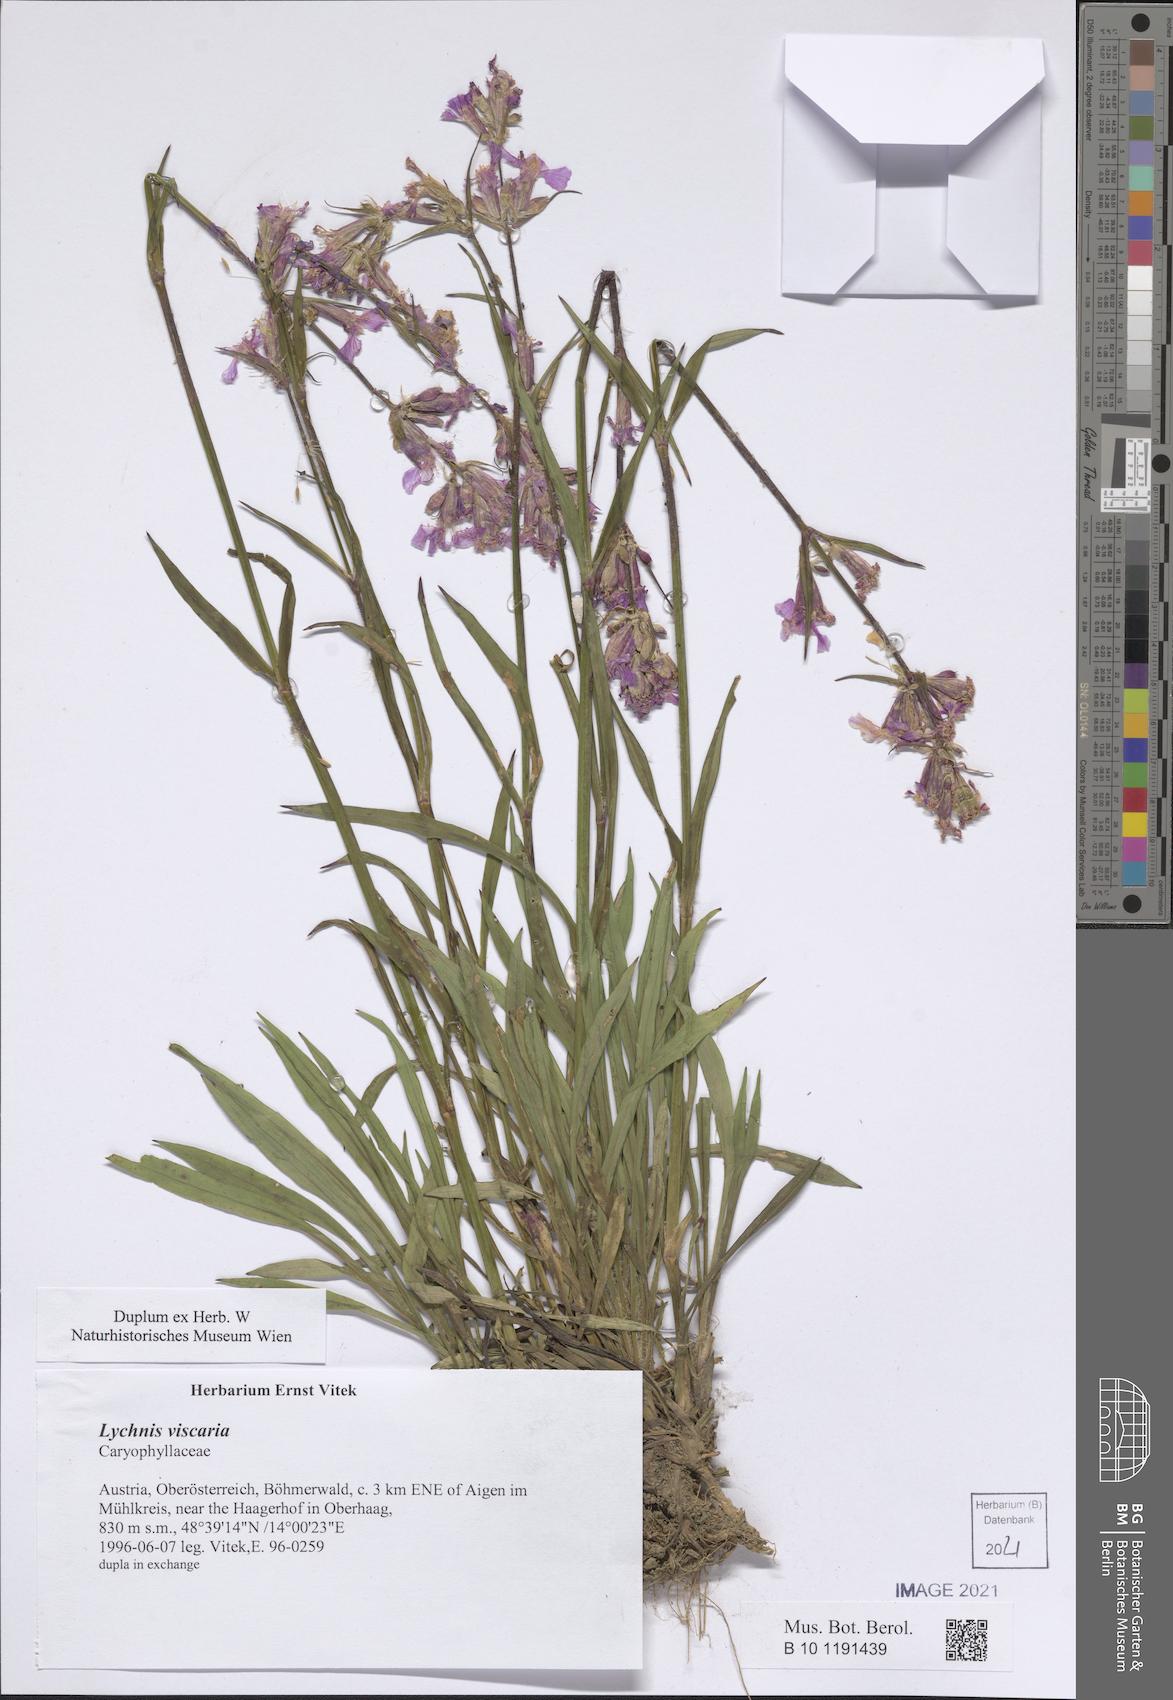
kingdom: Plantae
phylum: Tracheophyta
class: Magnoliopsida
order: Caryophyllales
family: Caryophyllaceae
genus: Viscaria
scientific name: Viscaria vulgaris
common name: Clammy campion
